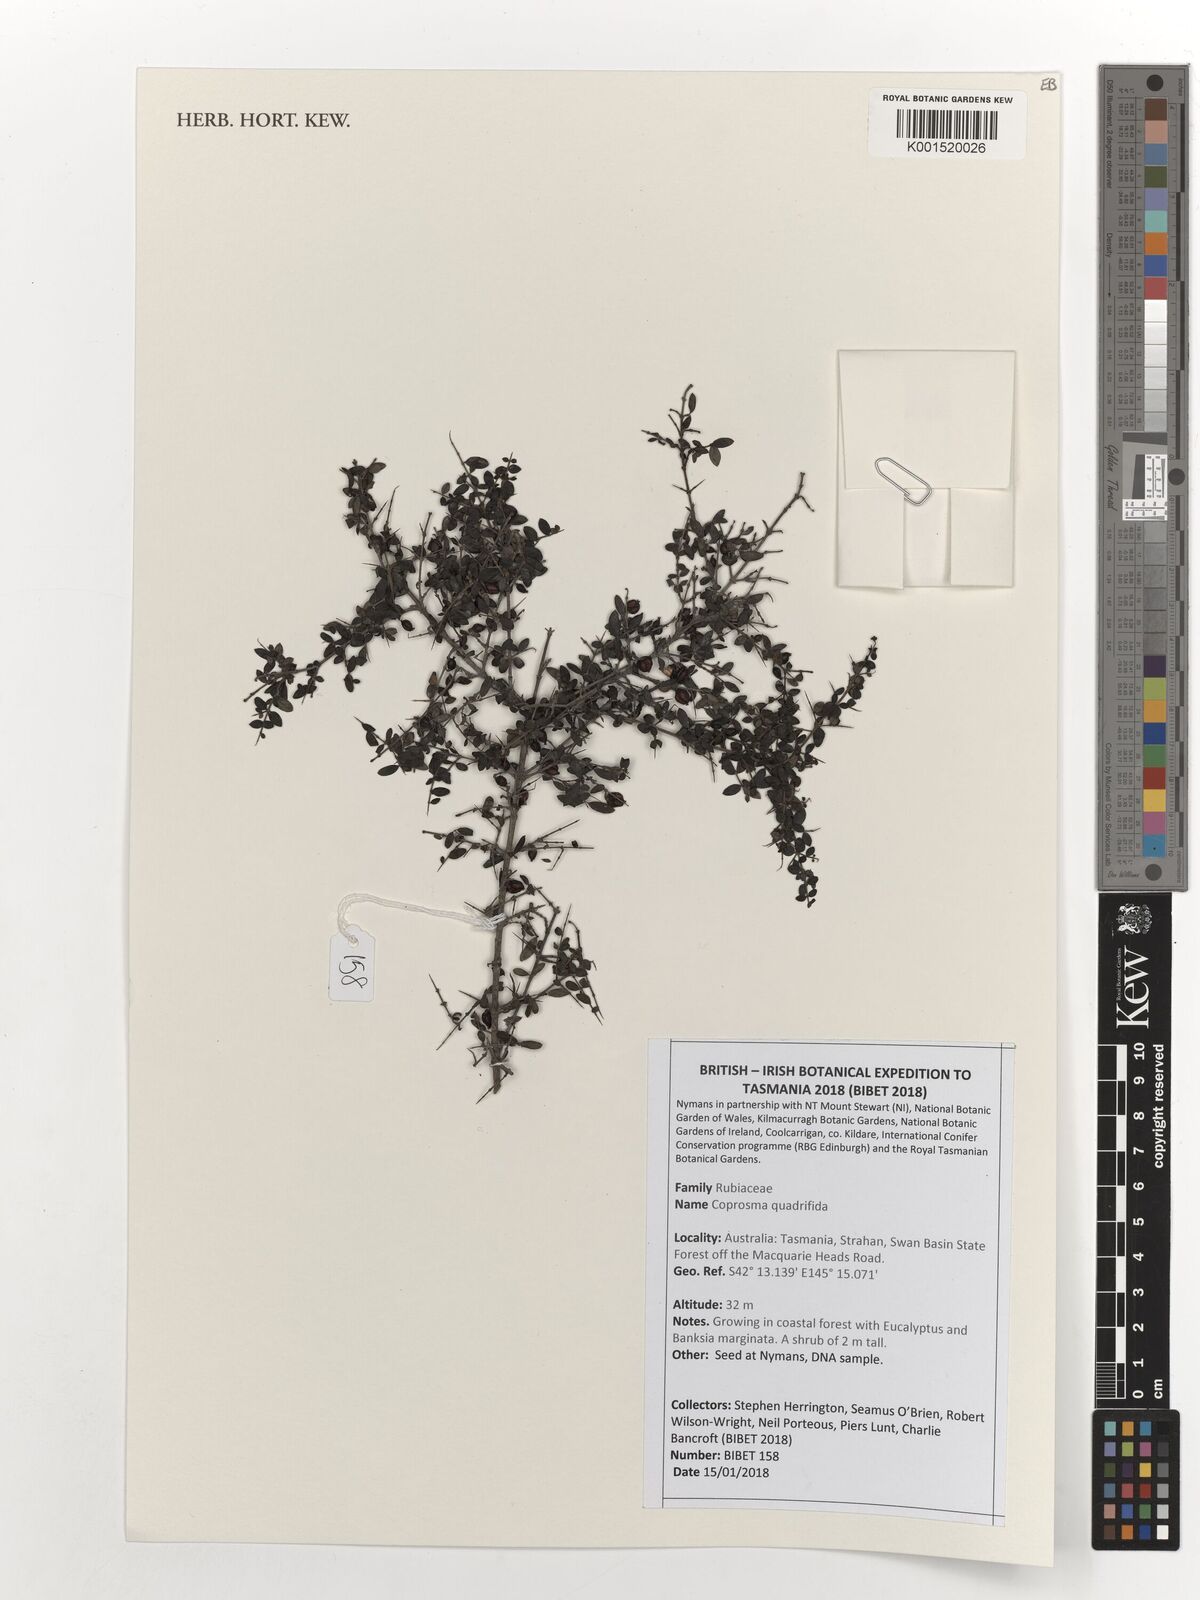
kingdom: Plantae
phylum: Tracheophyta
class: Magnoliopsida
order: Gentianales
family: Rubiaceae
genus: Coprosma
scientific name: Coprosma quadrifida
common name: Prickly currantbush
